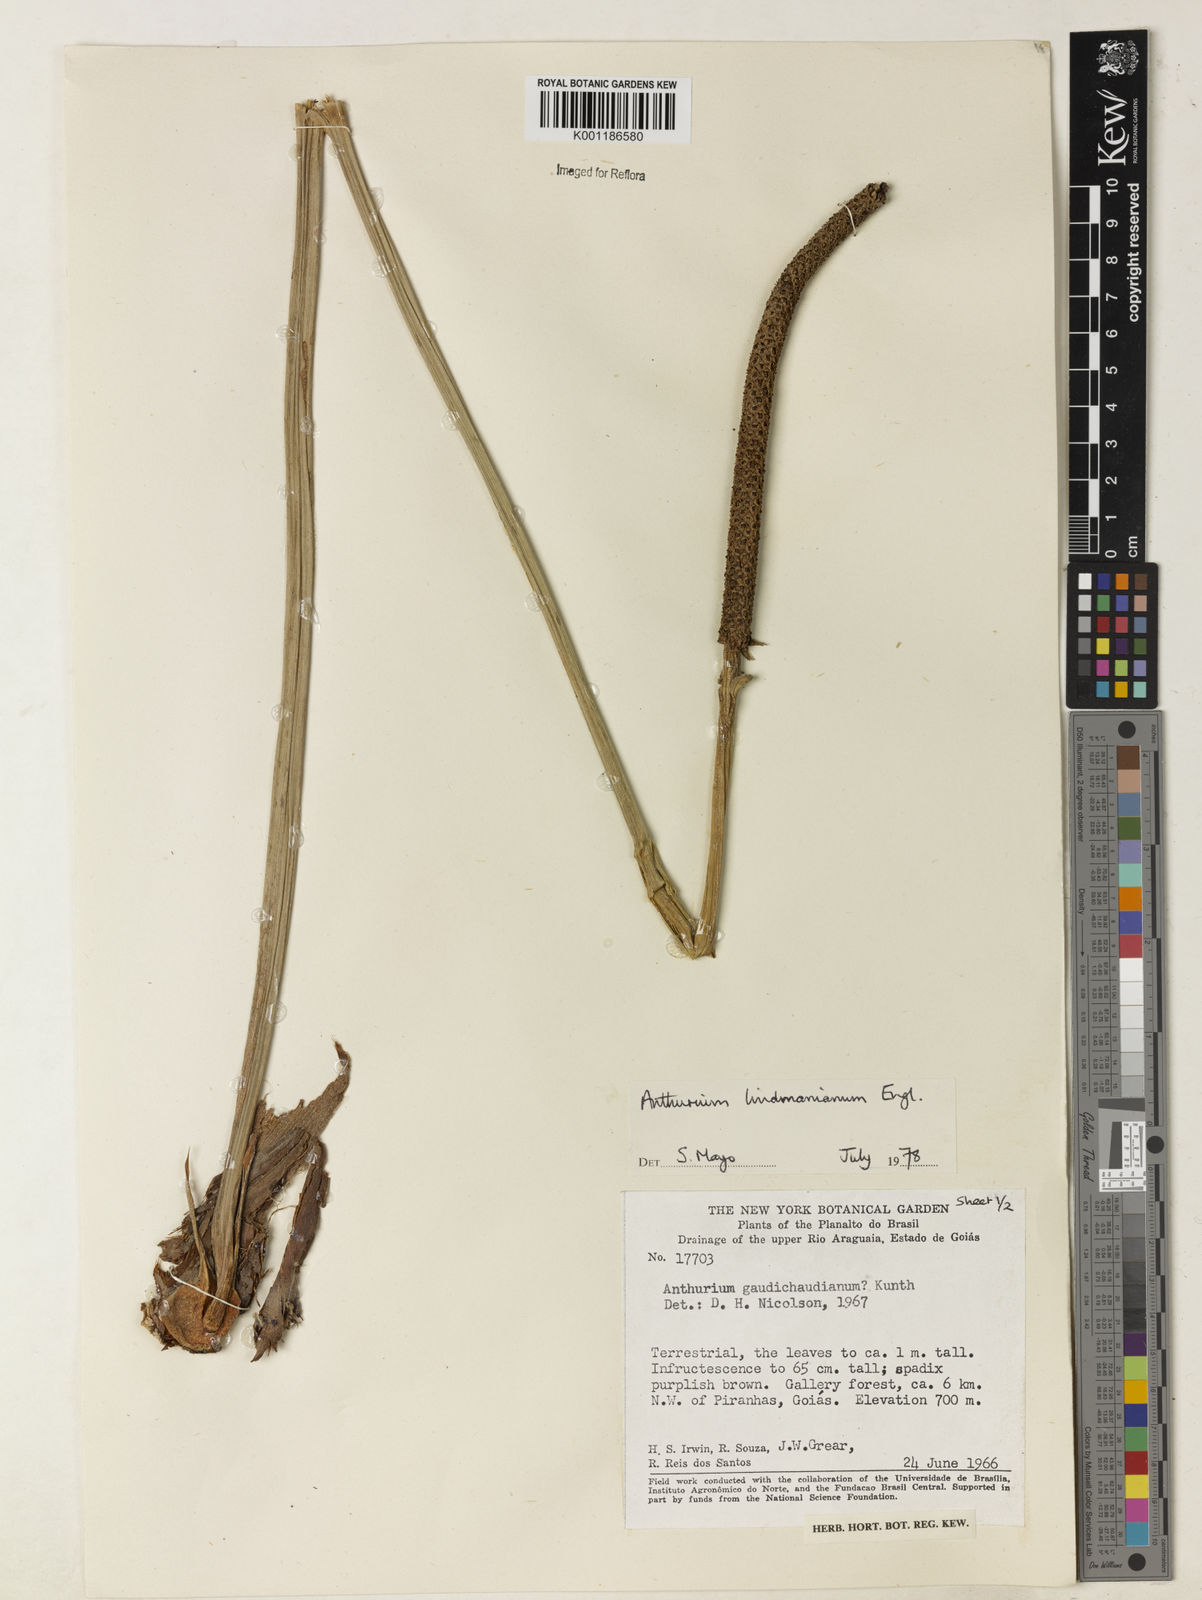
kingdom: Plantae
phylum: Tracheophyta
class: Liliopsida
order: Alismatales
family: Araceae
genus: Anthurium
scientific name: Anthurium lindmanianum
